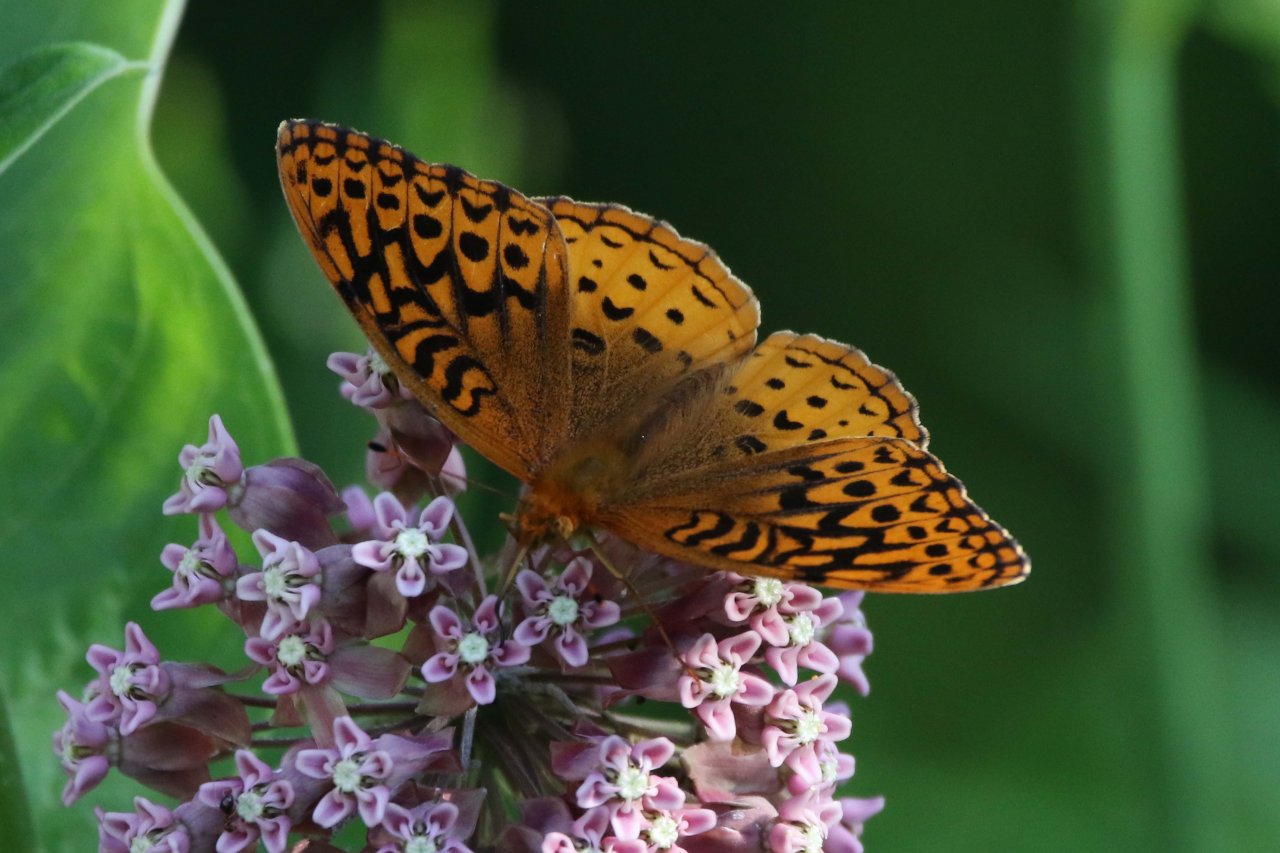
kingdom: Animalia
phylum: Arthropoda
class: Insecta
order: Lepidoptera
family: Nymphalidae
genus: Speyeria
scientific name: Speyeria cybele
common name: Great Spangled Fritillary
